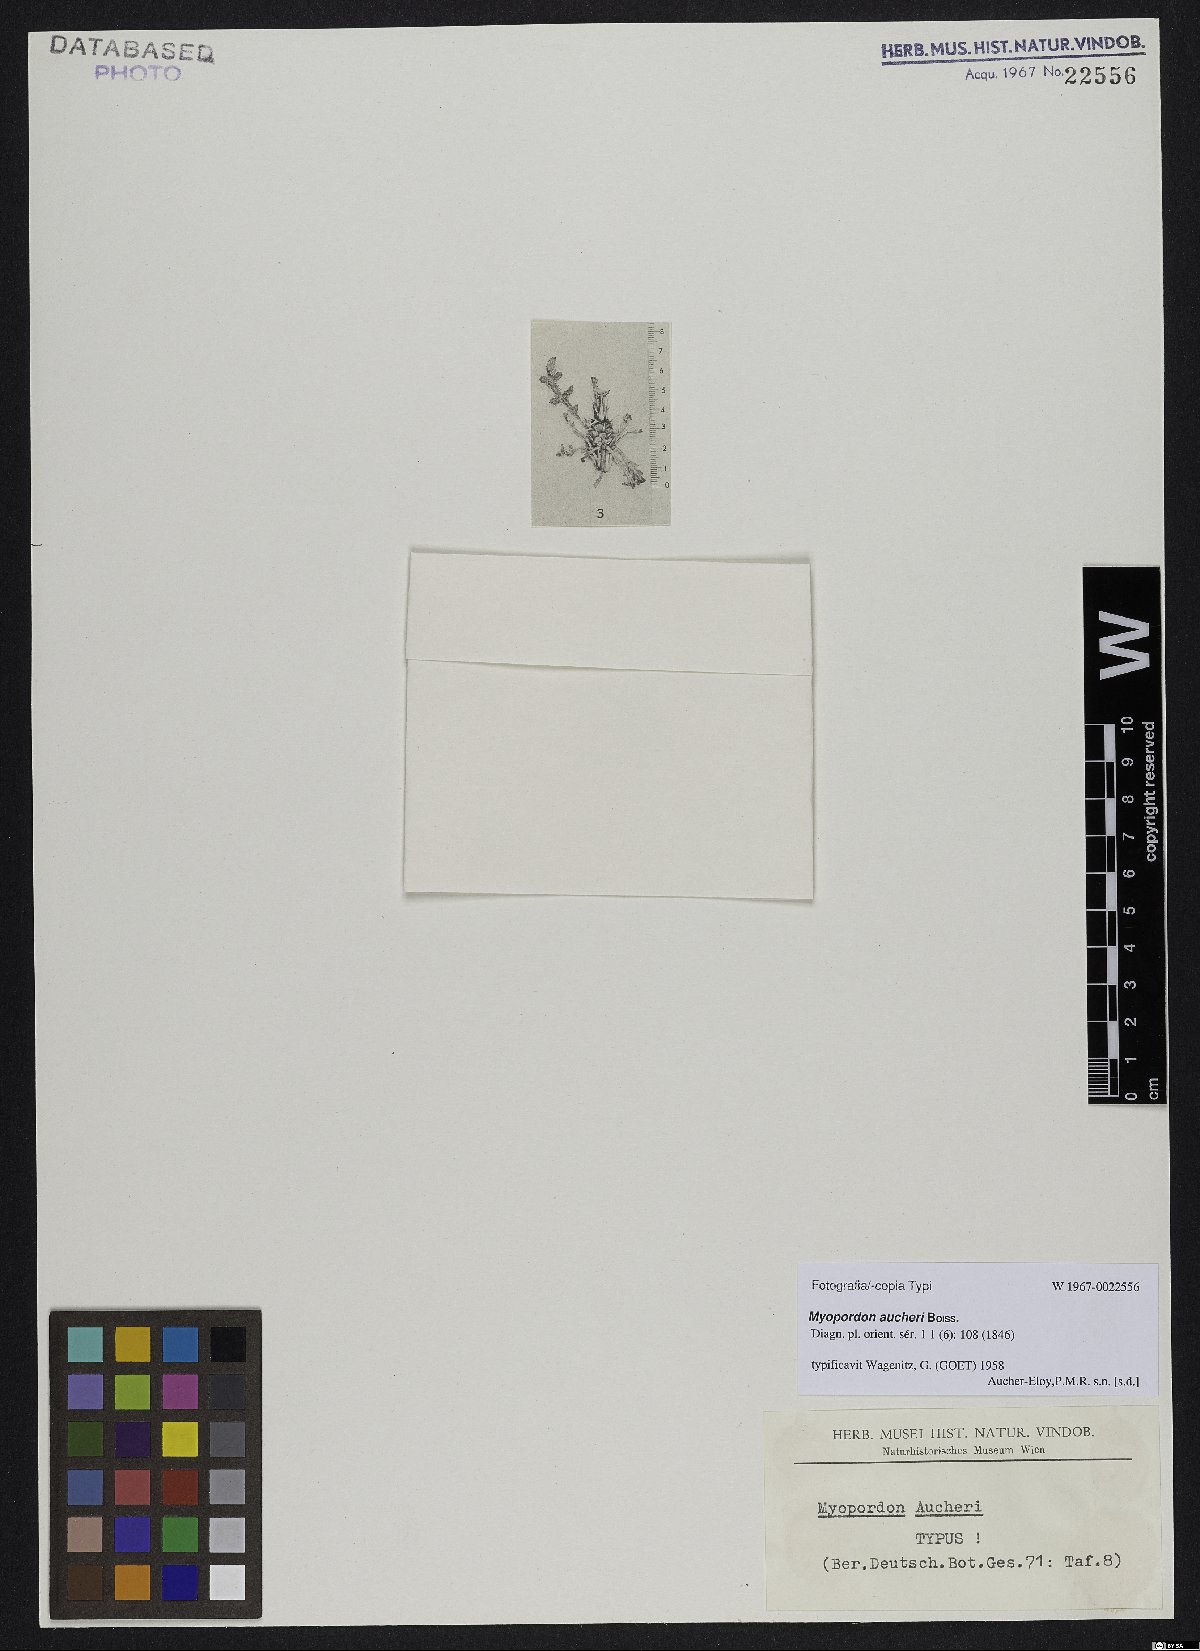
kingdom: Plantae
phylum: Tracheophyta
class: Magnoliopsida
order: Asterales
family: Asteraceae
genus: Myopordon
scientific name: Myopordon aucheri
